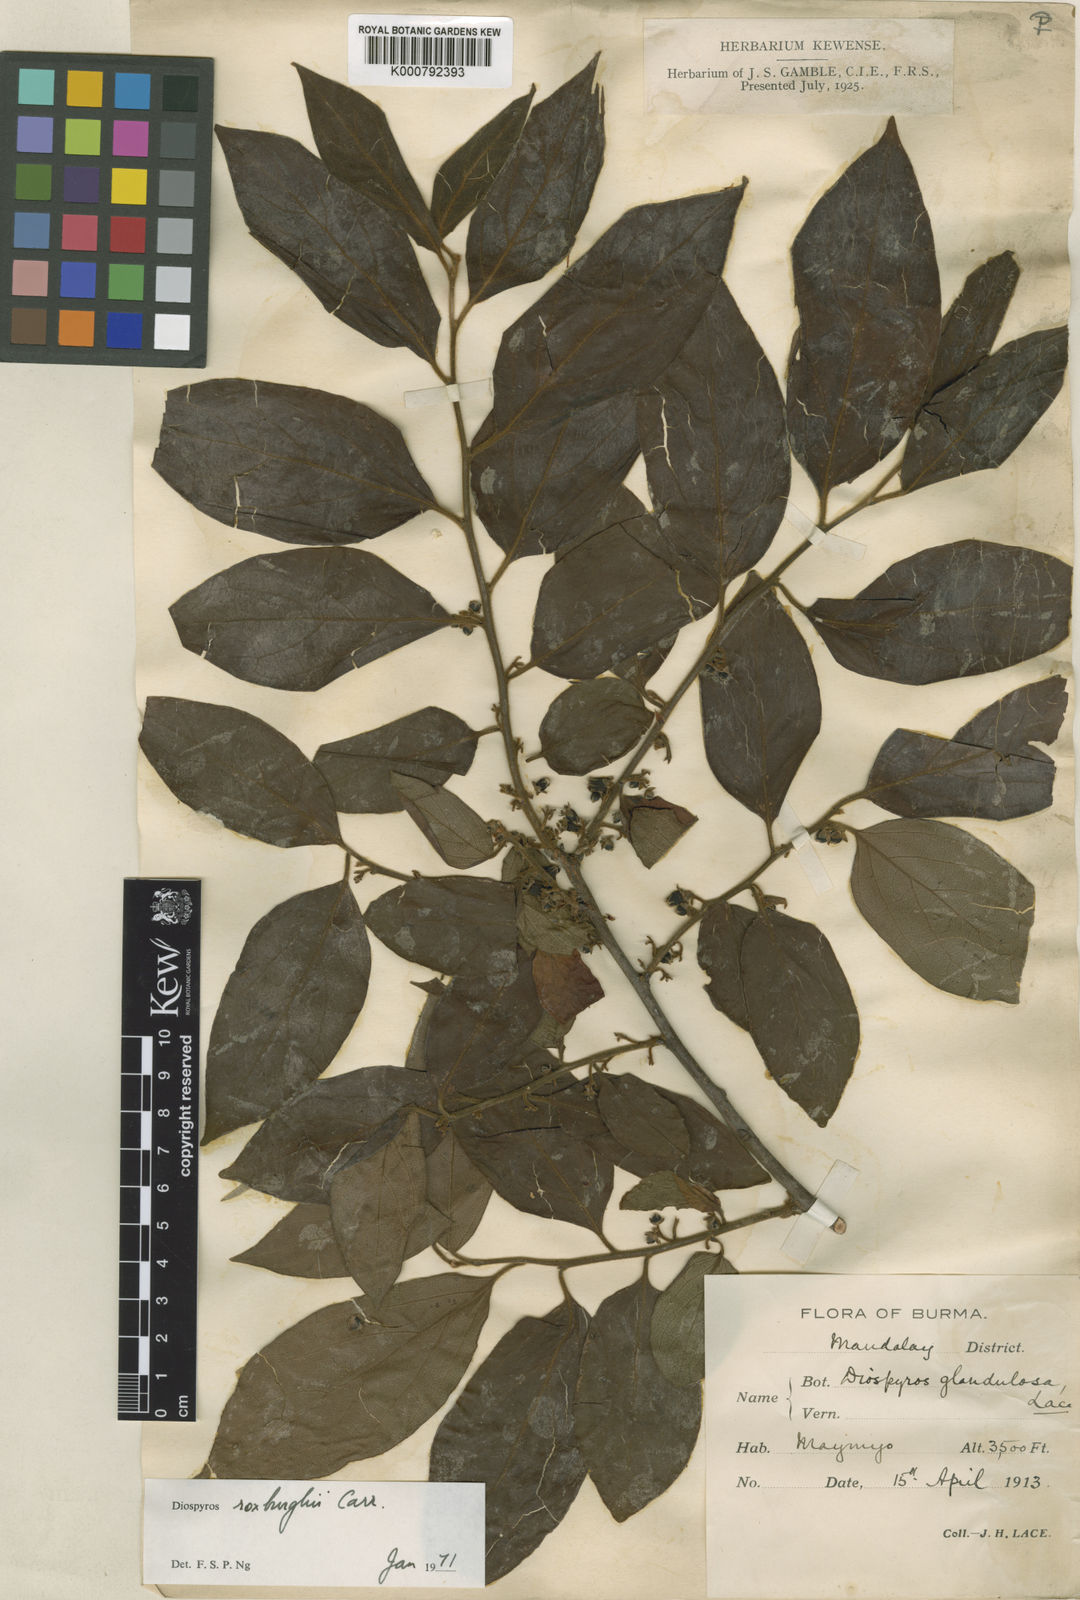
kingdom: Plantae
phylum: Tracheophyta
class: Magnoliopsida
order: Ericales
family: Ebenaceae
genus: Diospyros
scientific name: Diospyros glandulosa
